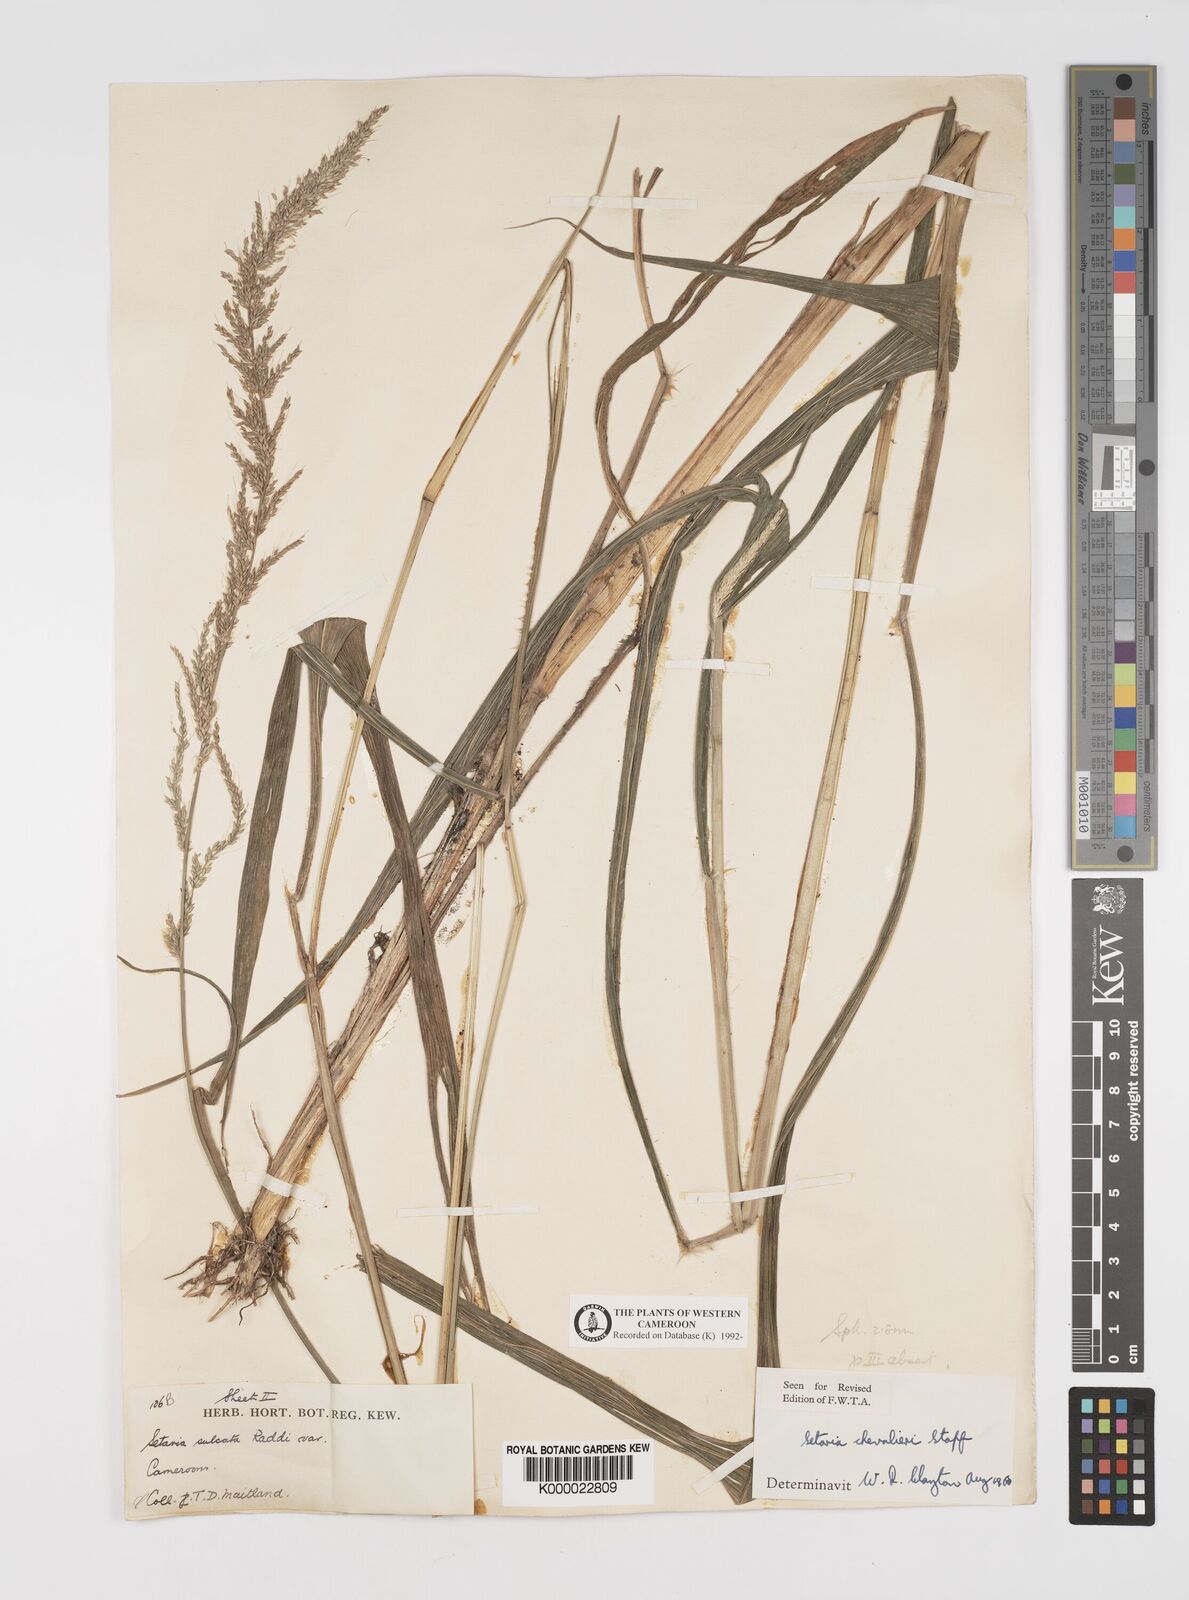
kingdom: Plantae
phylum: Tracheophyta
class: Liliopsida
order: Poales
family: Poaceae
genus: Setaria
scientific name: Setaria megaphylla
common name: Bigleaf bristlegrass
